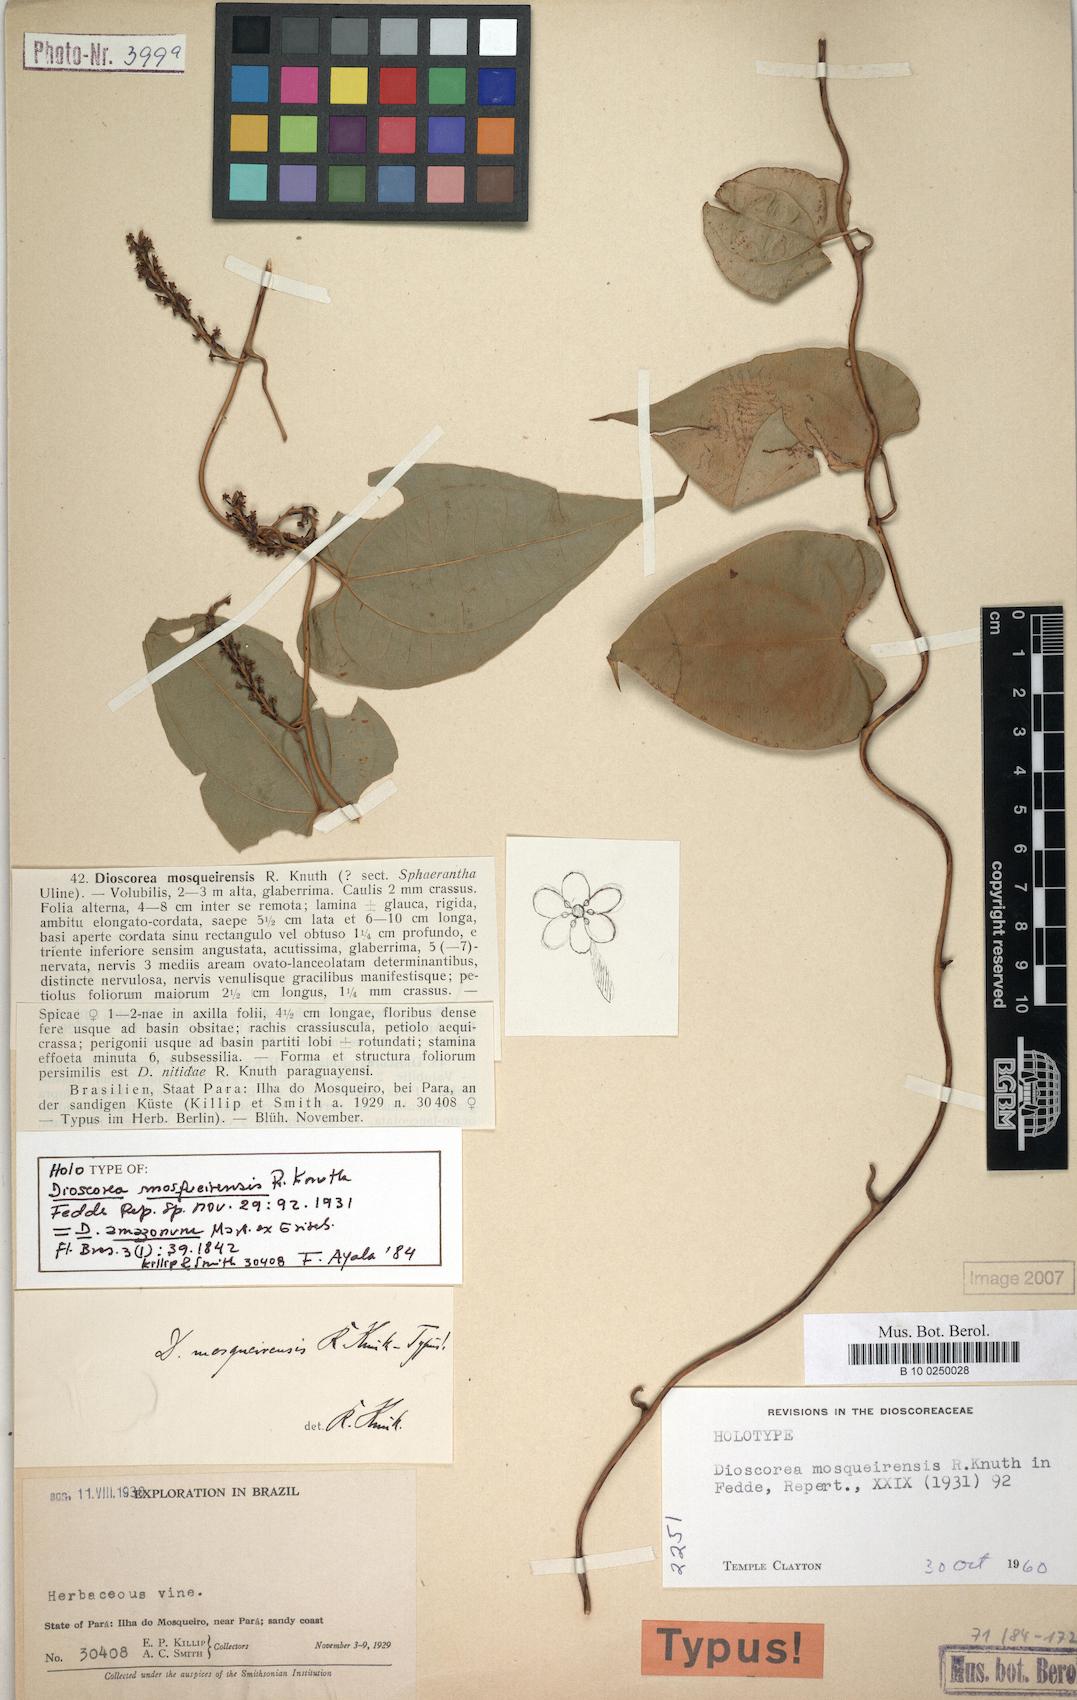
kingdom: Plantae
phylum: Tracheophyta
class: Liliopsida
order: Dioscoreales
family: Dioscoreaceae
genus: Dioscorea
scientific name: Dioscorea amazonum
